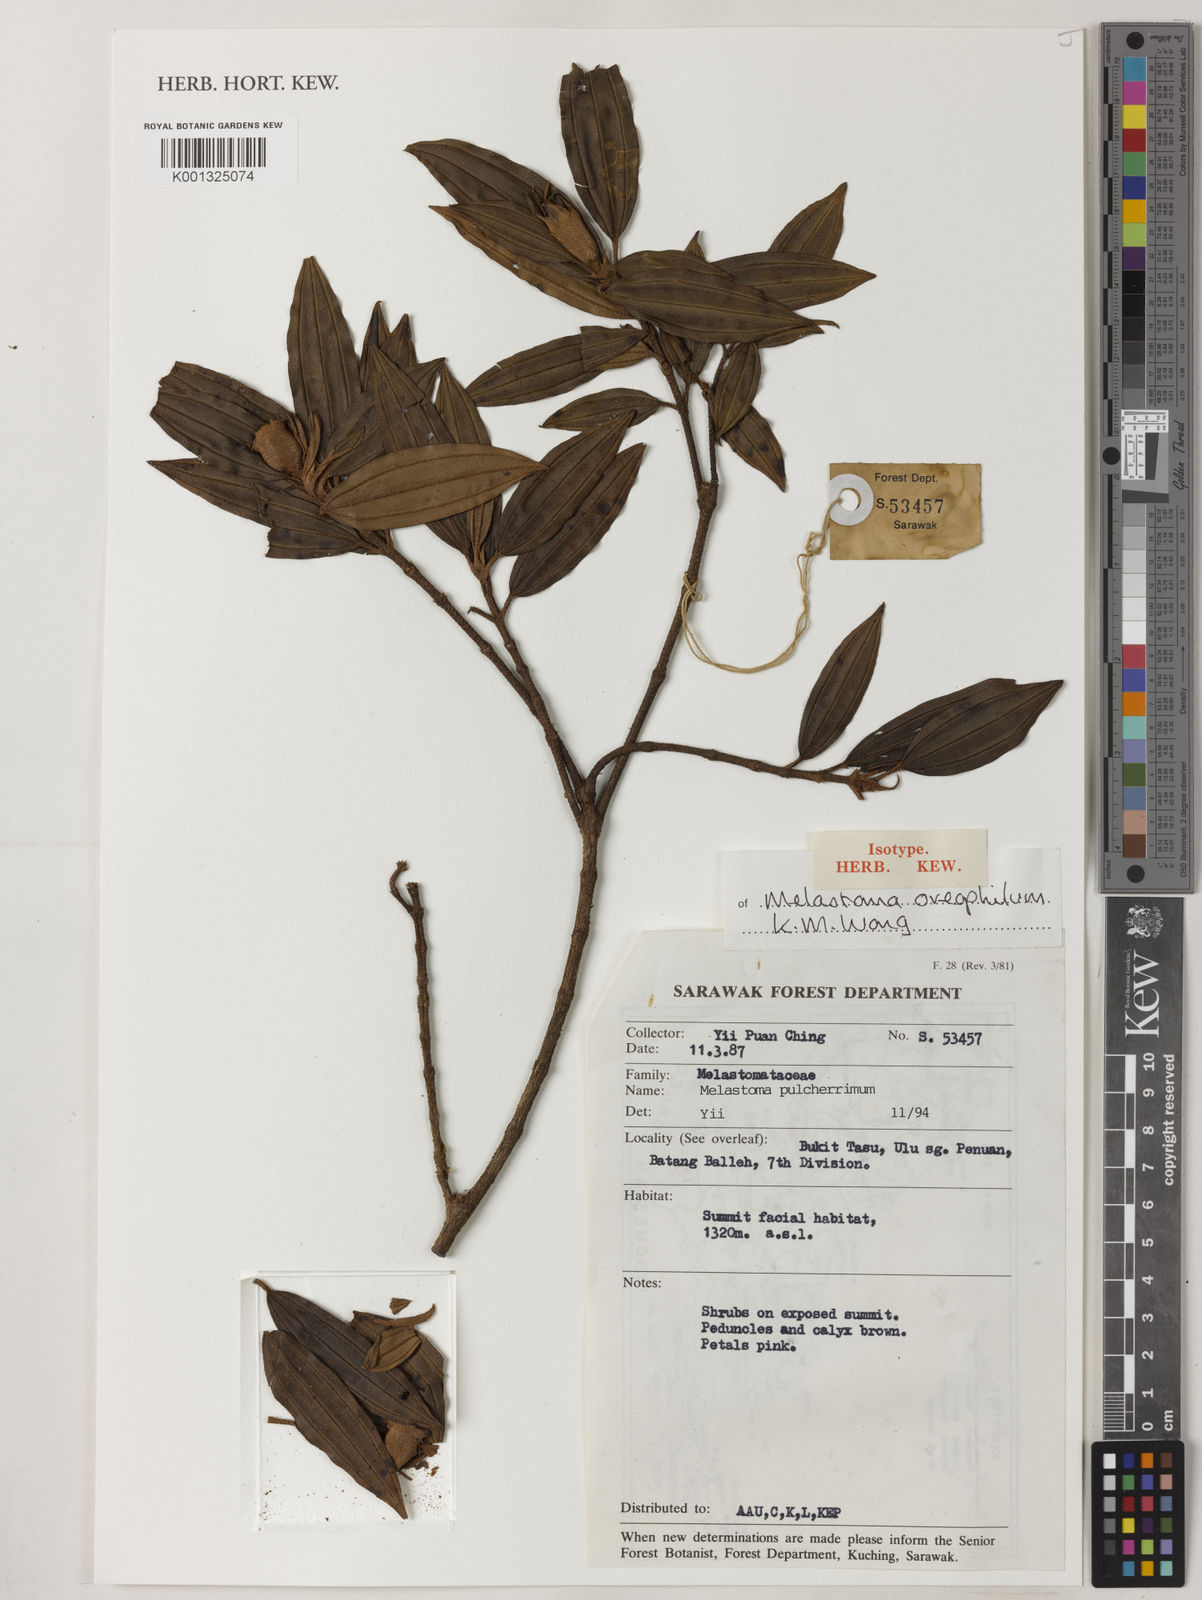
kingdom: Plantae
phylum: Tracheophyta
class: Magnoliopsida
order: Myrtales
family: Melastomataceae
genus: Melastoma
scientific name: Melastoma oreophilum
